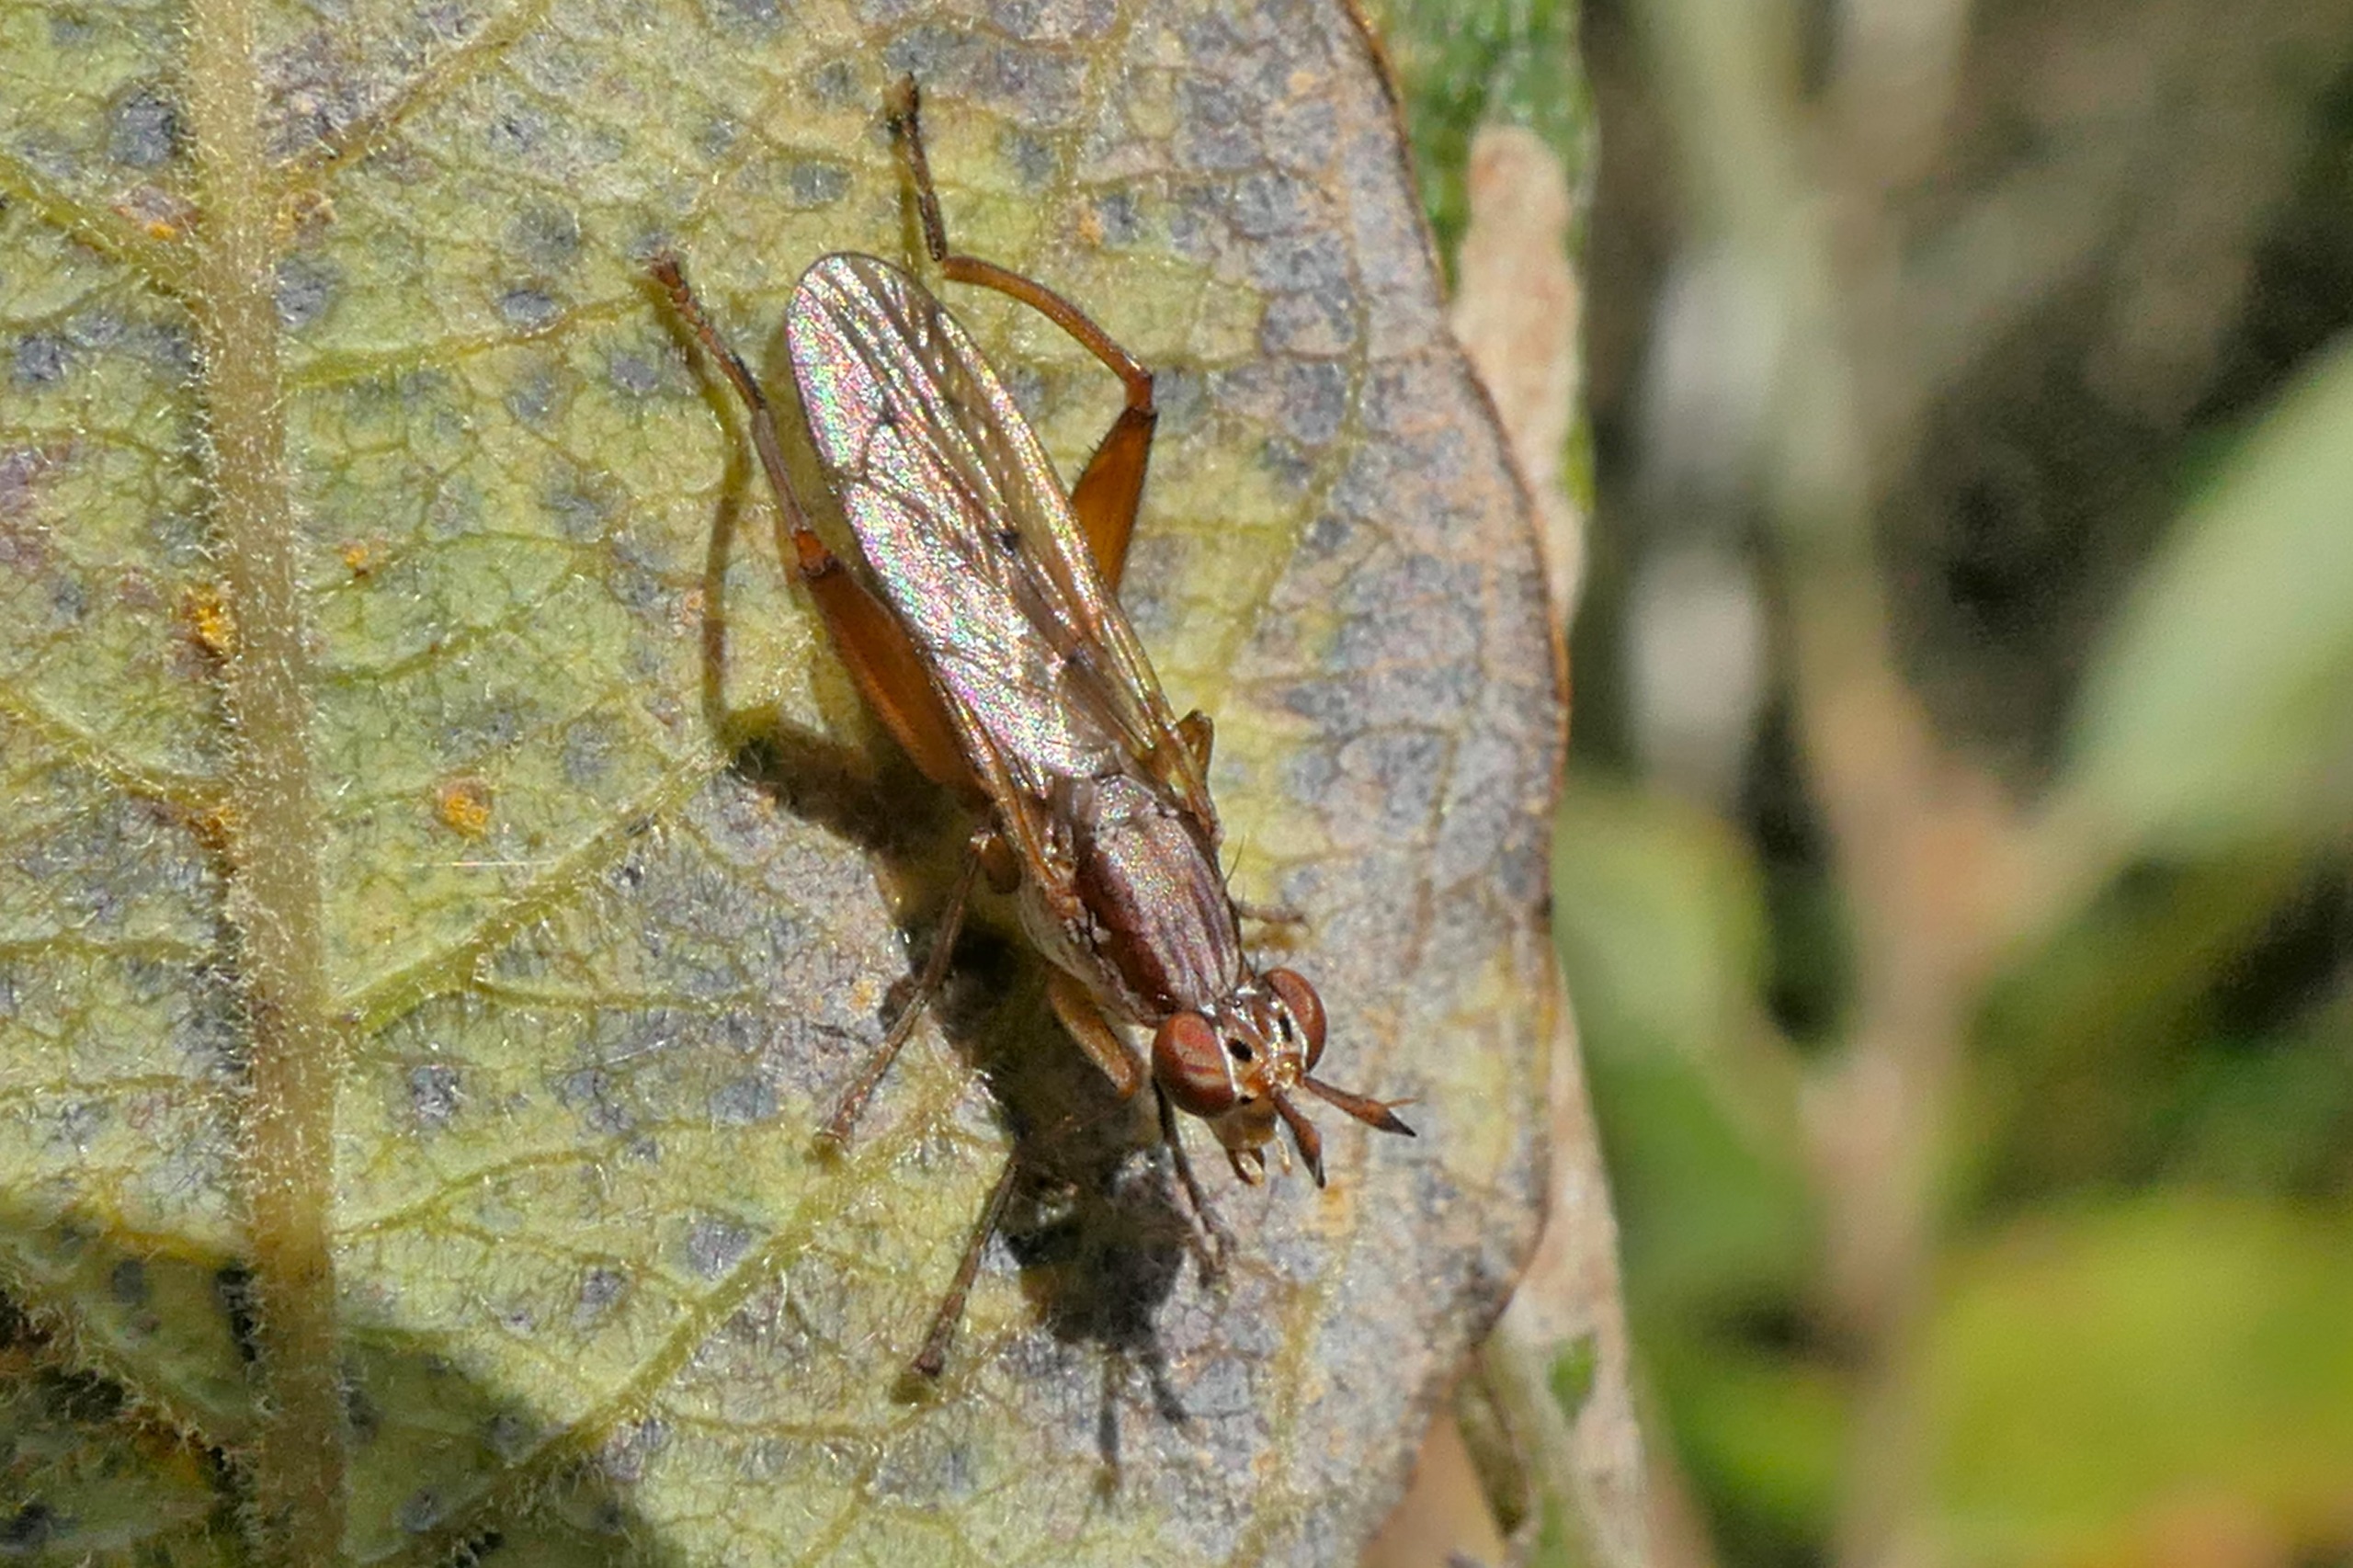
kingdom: Animalia
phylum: Arthropoda
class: Insecta
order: Diptera
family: Sciomyzidae
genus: Sepedon
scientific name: Sepedon spinipes
